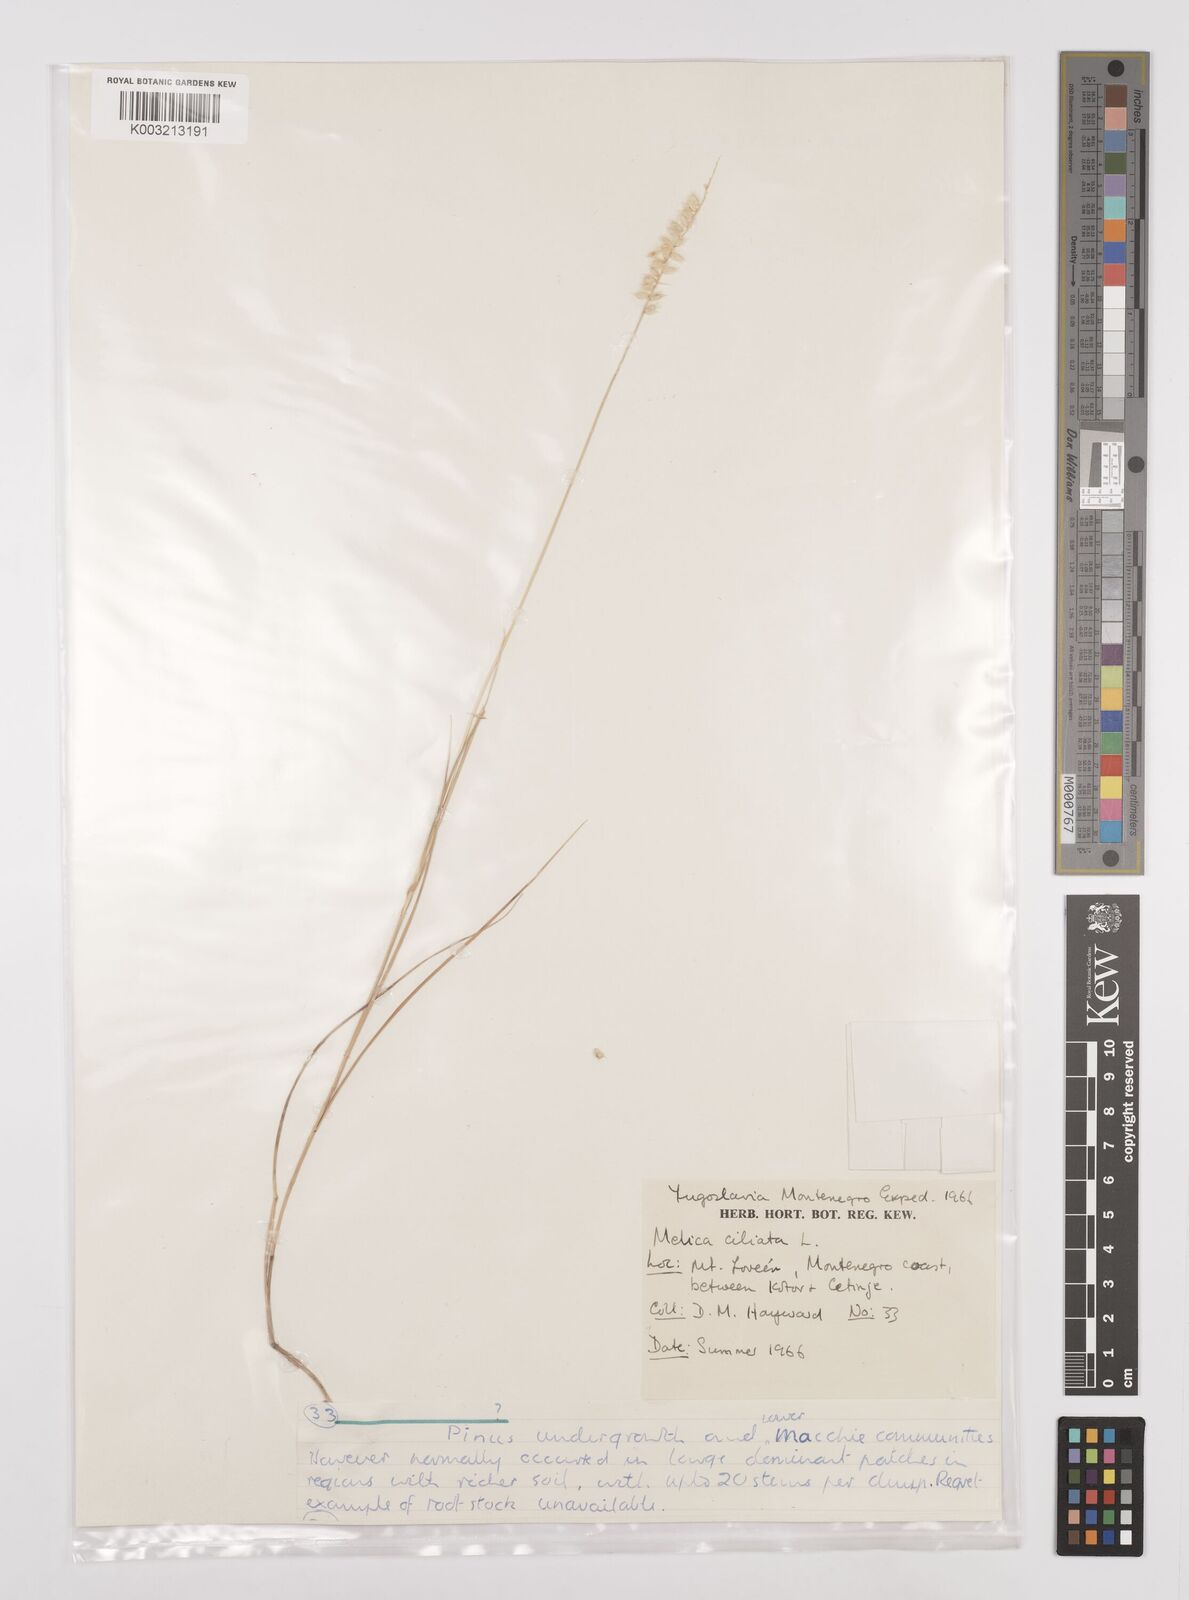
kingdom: Plantae
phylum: Tracheophyta
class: Liliopsida
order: Poales
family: Poaceae
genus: Melica
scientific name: Melica ciliata
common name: Hairy melicgrass
